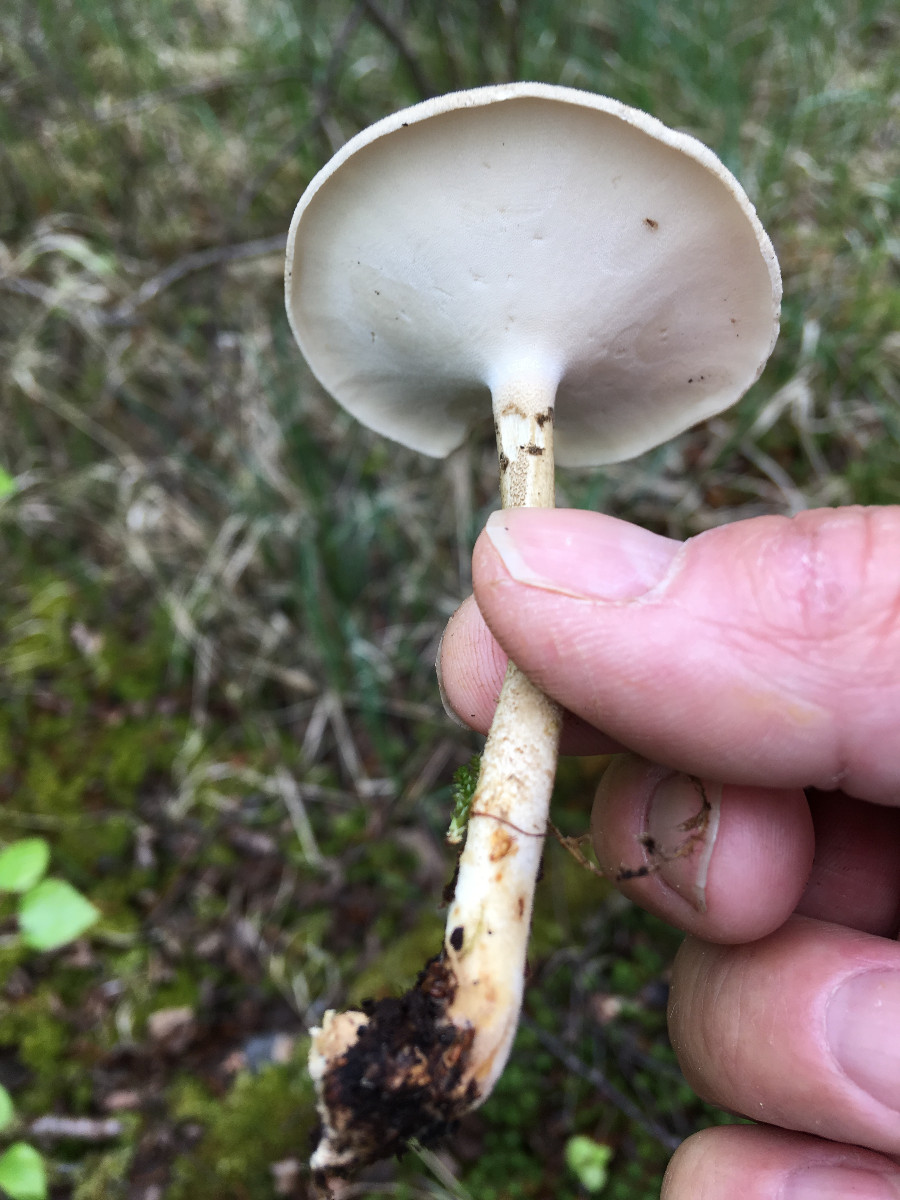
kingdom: Fungi
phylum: Basidiomycota
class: Agaricomycetes
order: Polyporales
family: Polyporaceae
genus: Lentinus
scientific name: Lentinus substrictus
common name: forårs-stilkporesvamp
